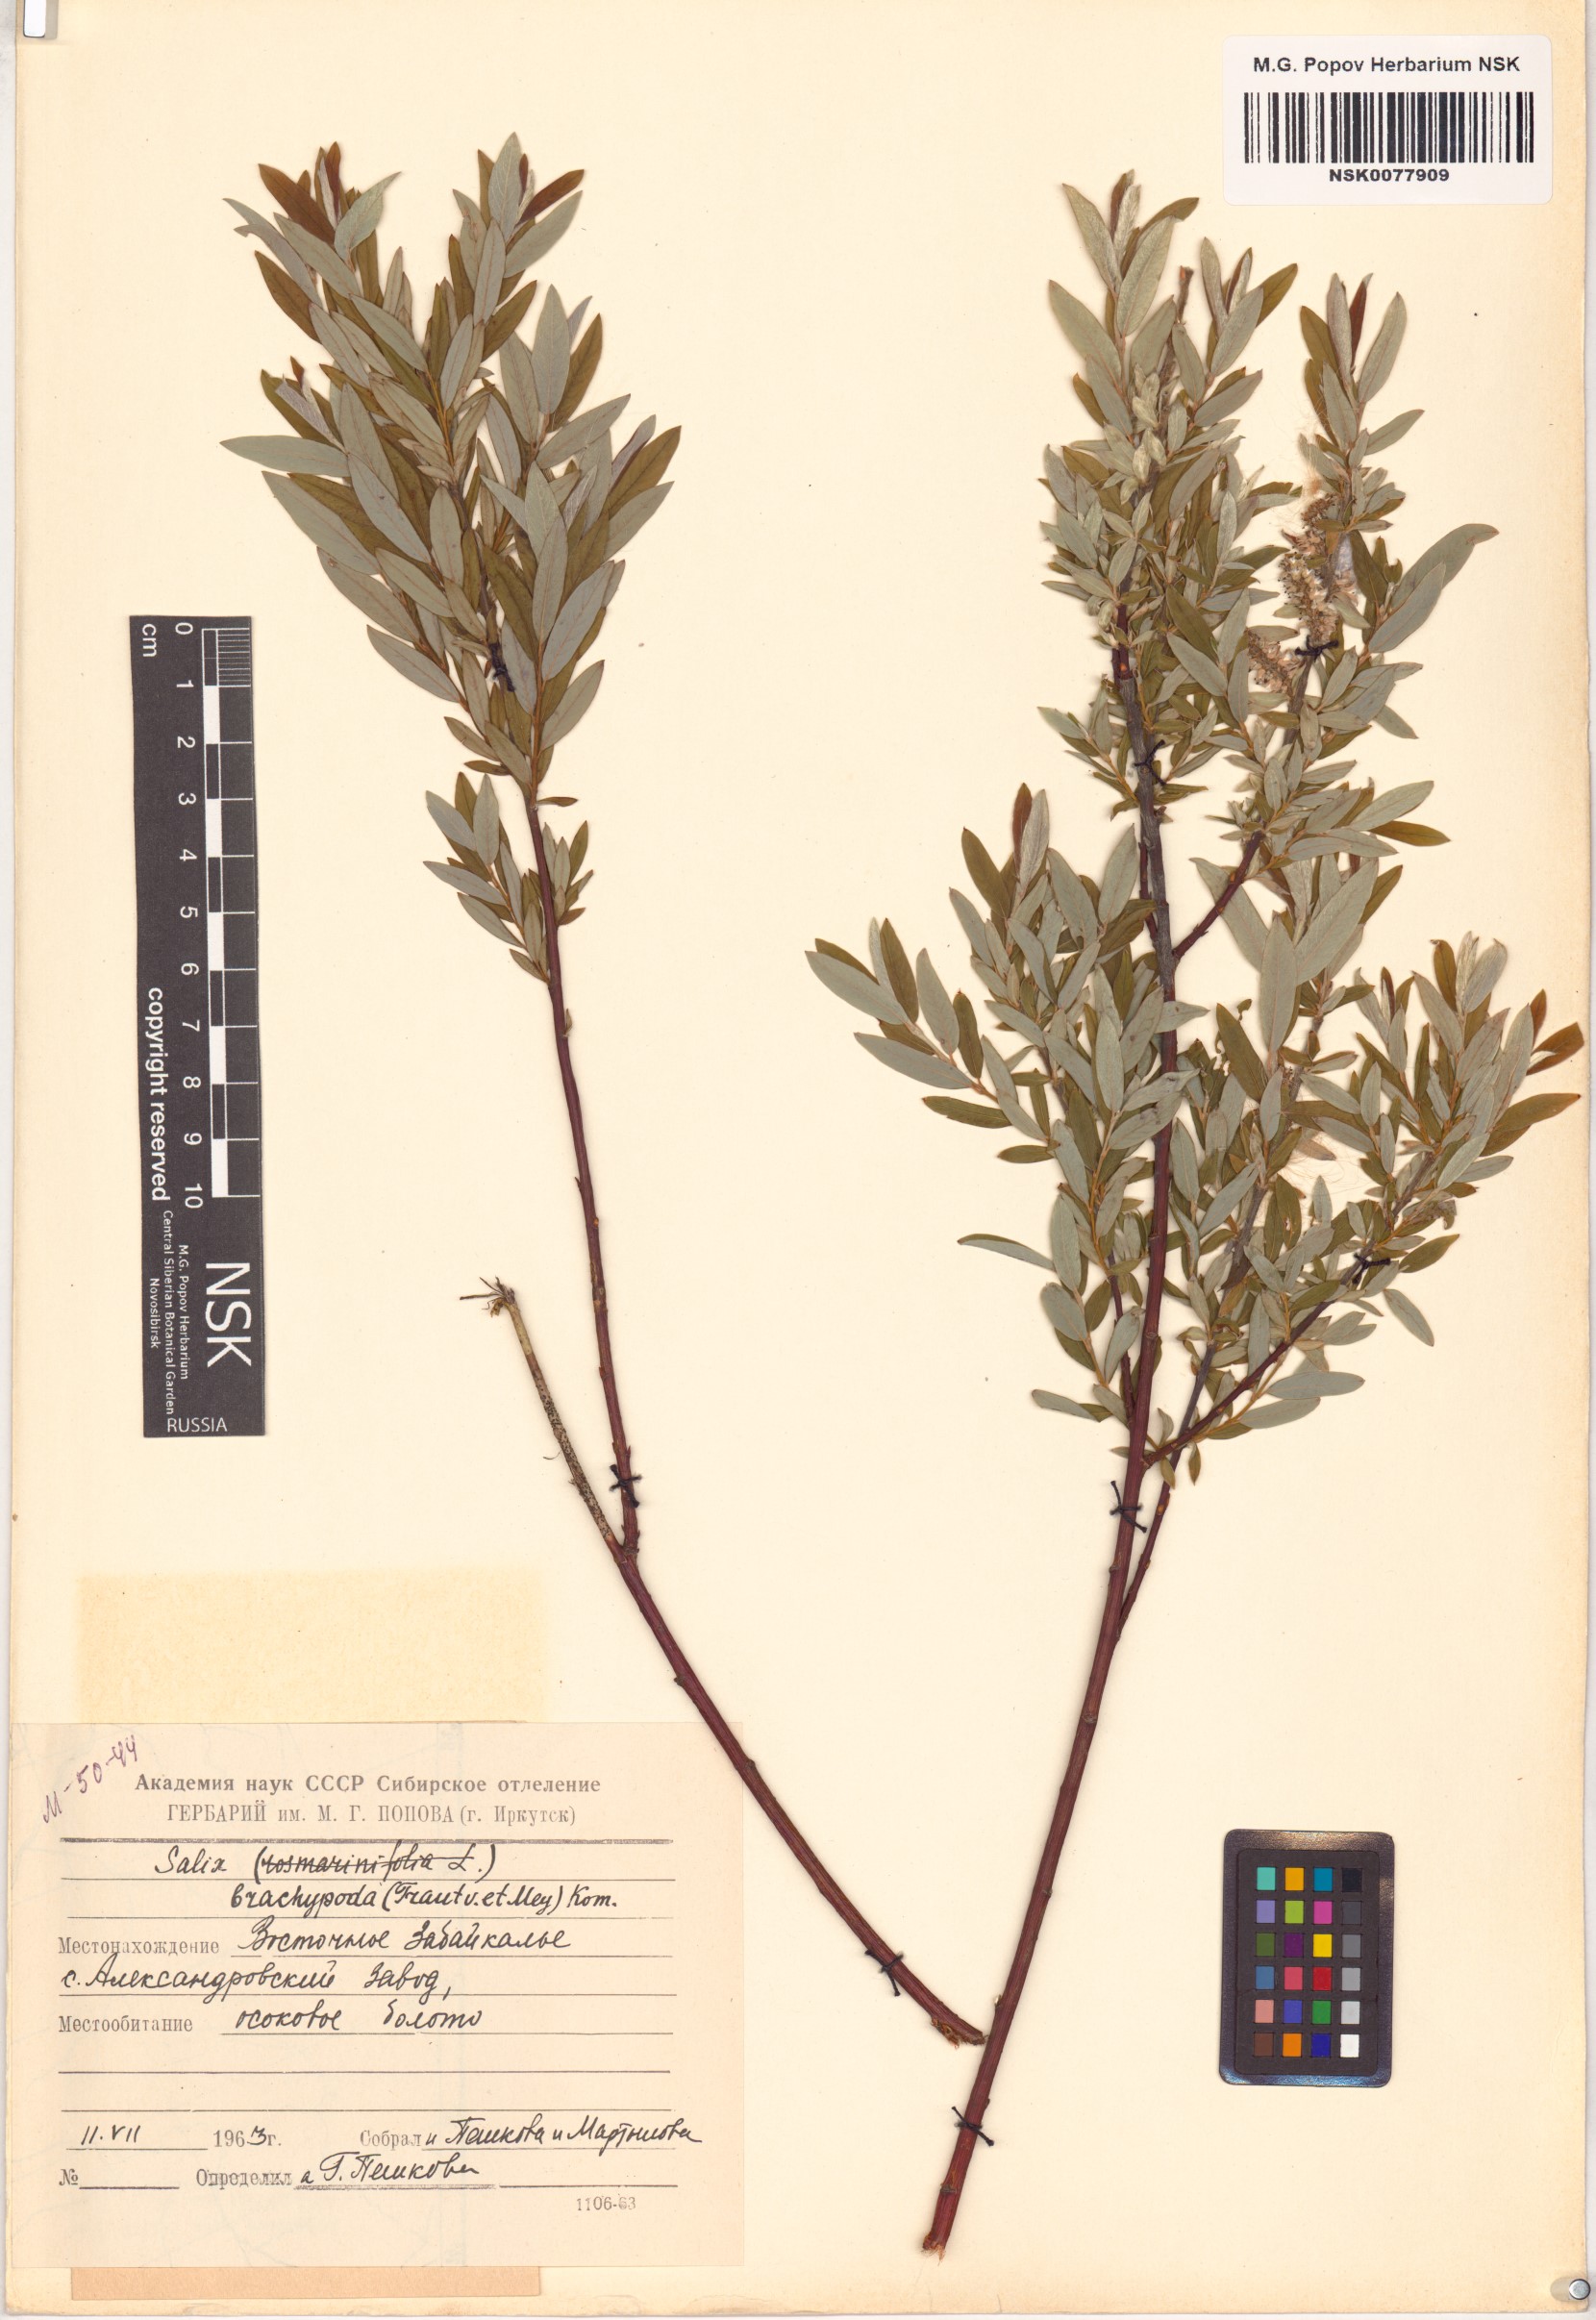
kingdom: Plantae
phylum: Tracheophyta
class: Magnoliopsida
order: Malpighiales
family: Salicaceae
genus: Salix
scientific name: Salix brachypoda
